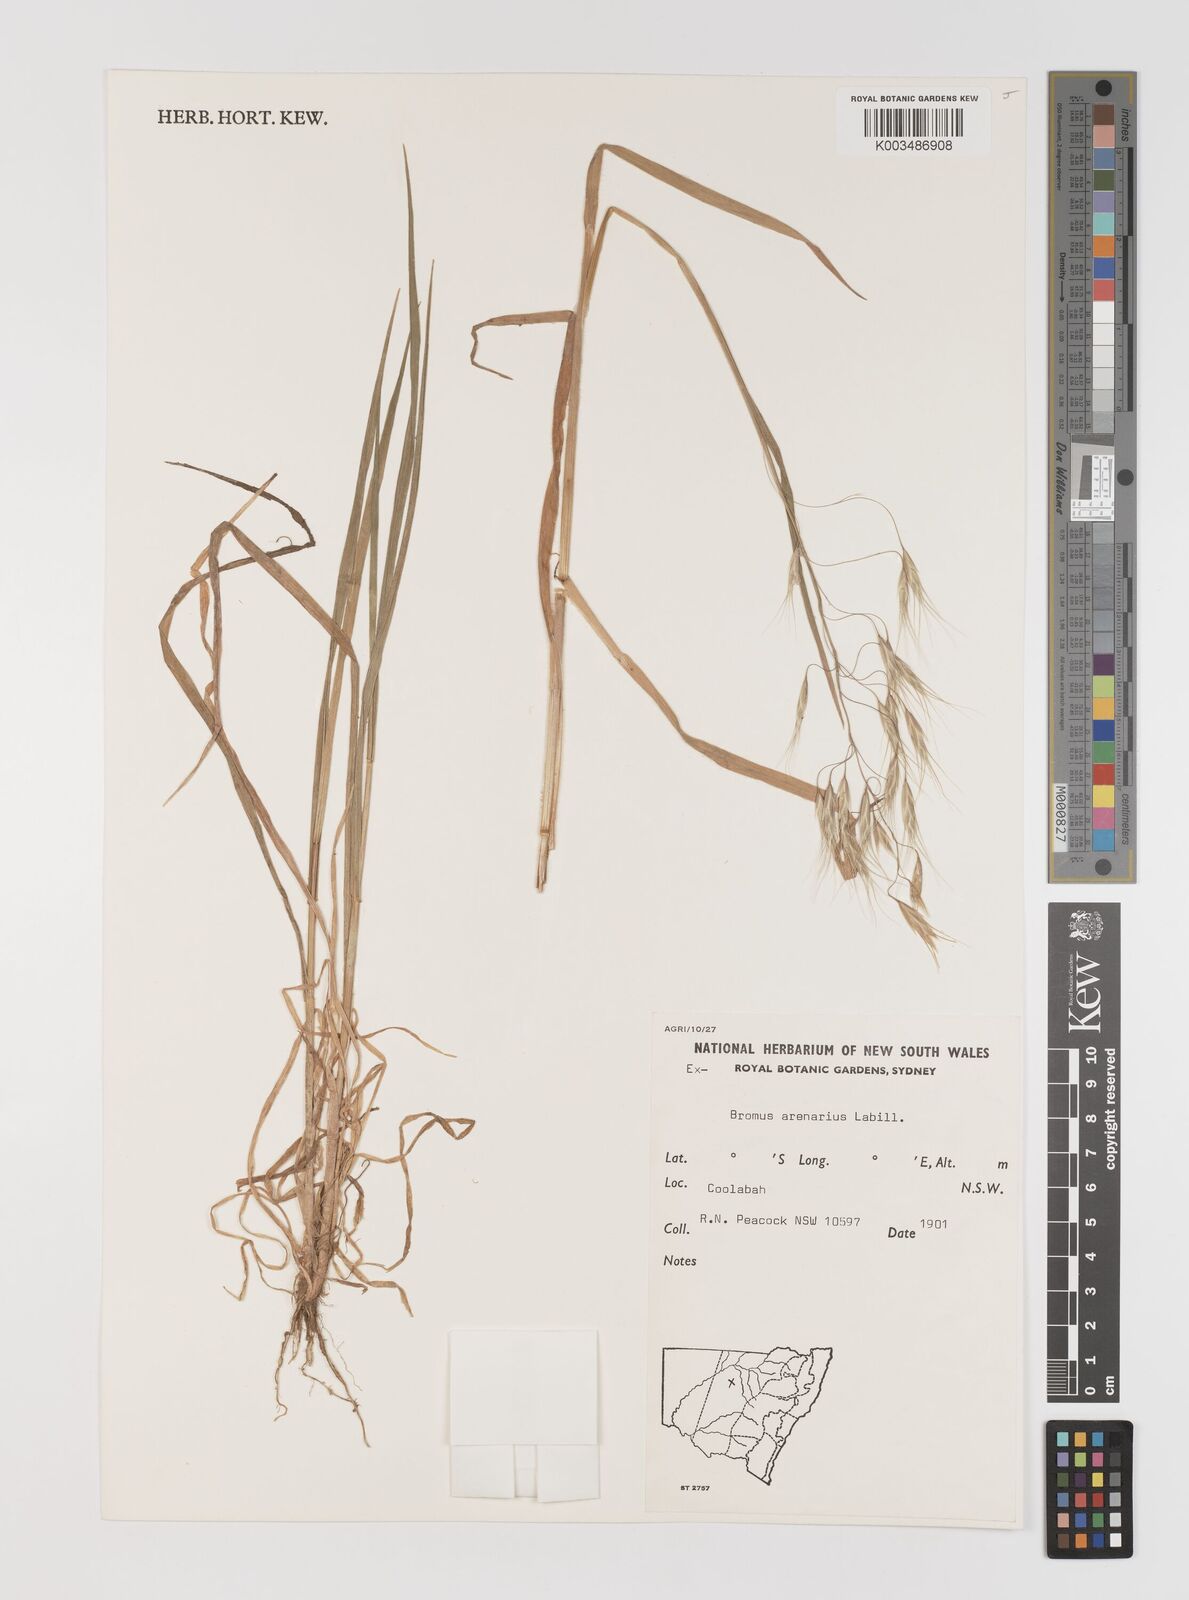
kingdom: Plantae
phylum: Tracheophyta
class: Liliopsida
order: Poales
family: Poaceae
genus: Bromus
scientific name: Bromus arenarius
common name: Australian brome
